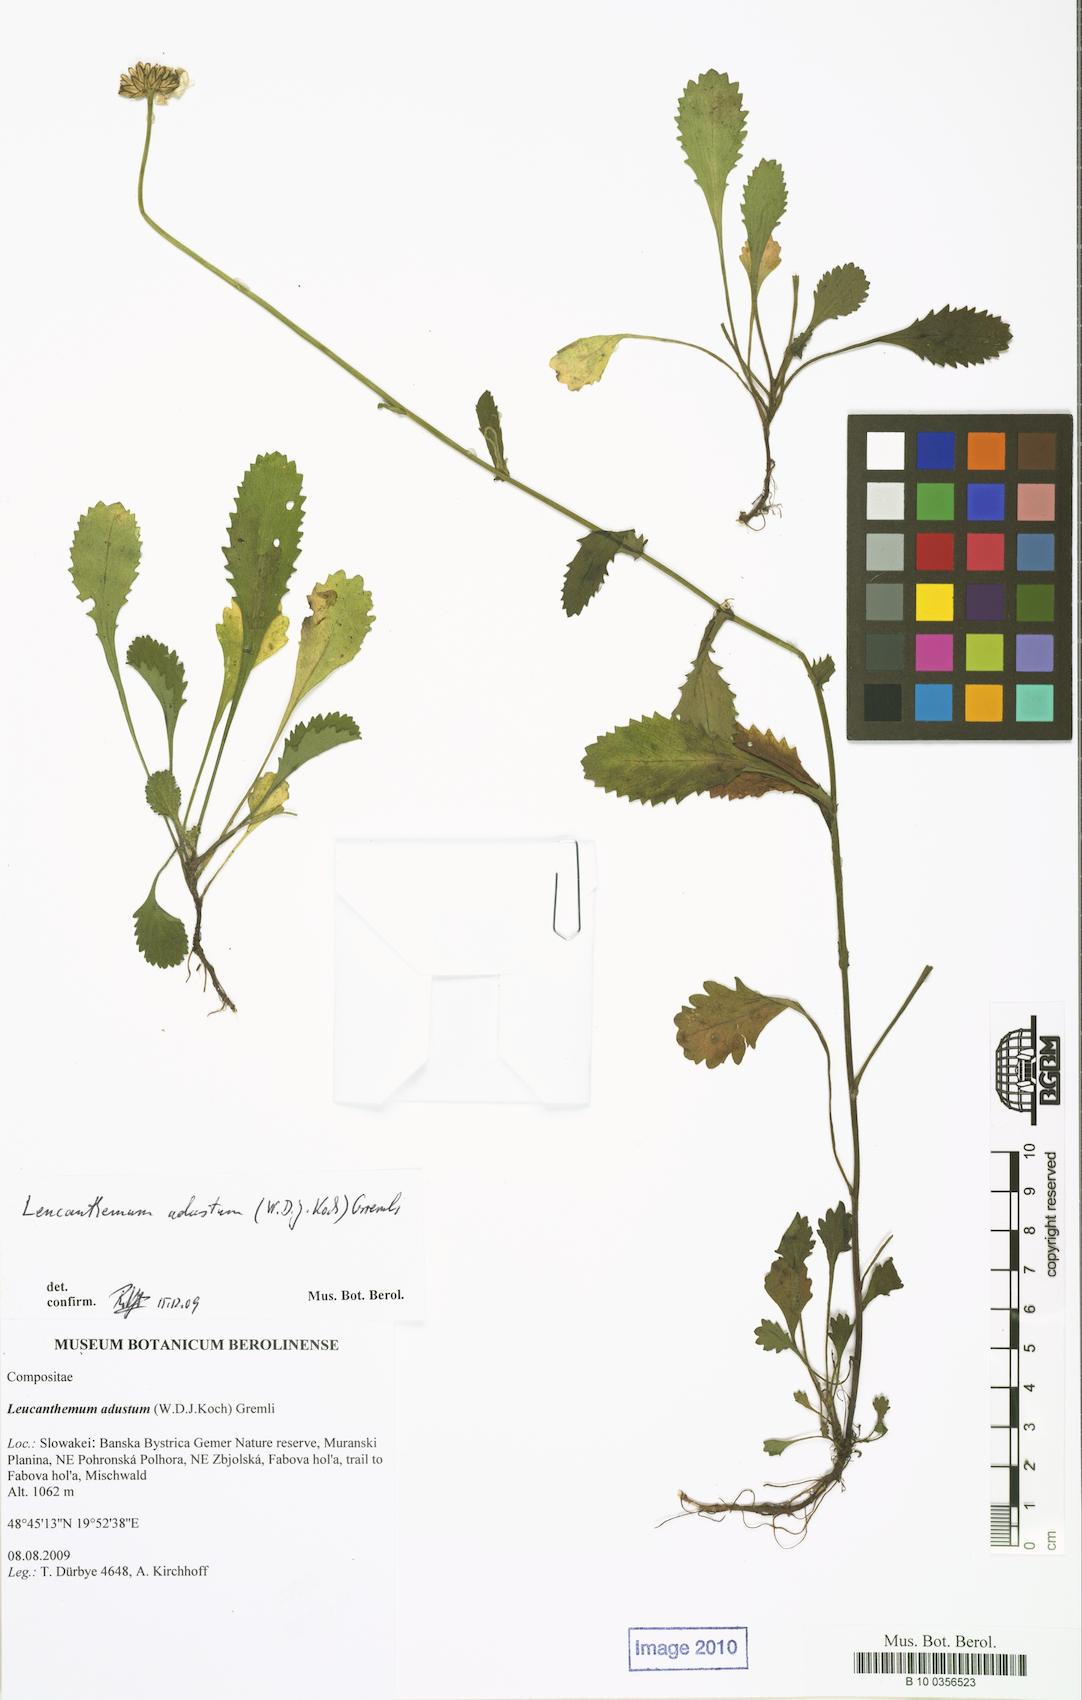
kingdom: Plantae
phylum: Tracheophyta
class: Magnoliopsida
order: Asterales
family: Asteraceae
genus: Leucanthemum
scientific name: Leucanthemum adustum
